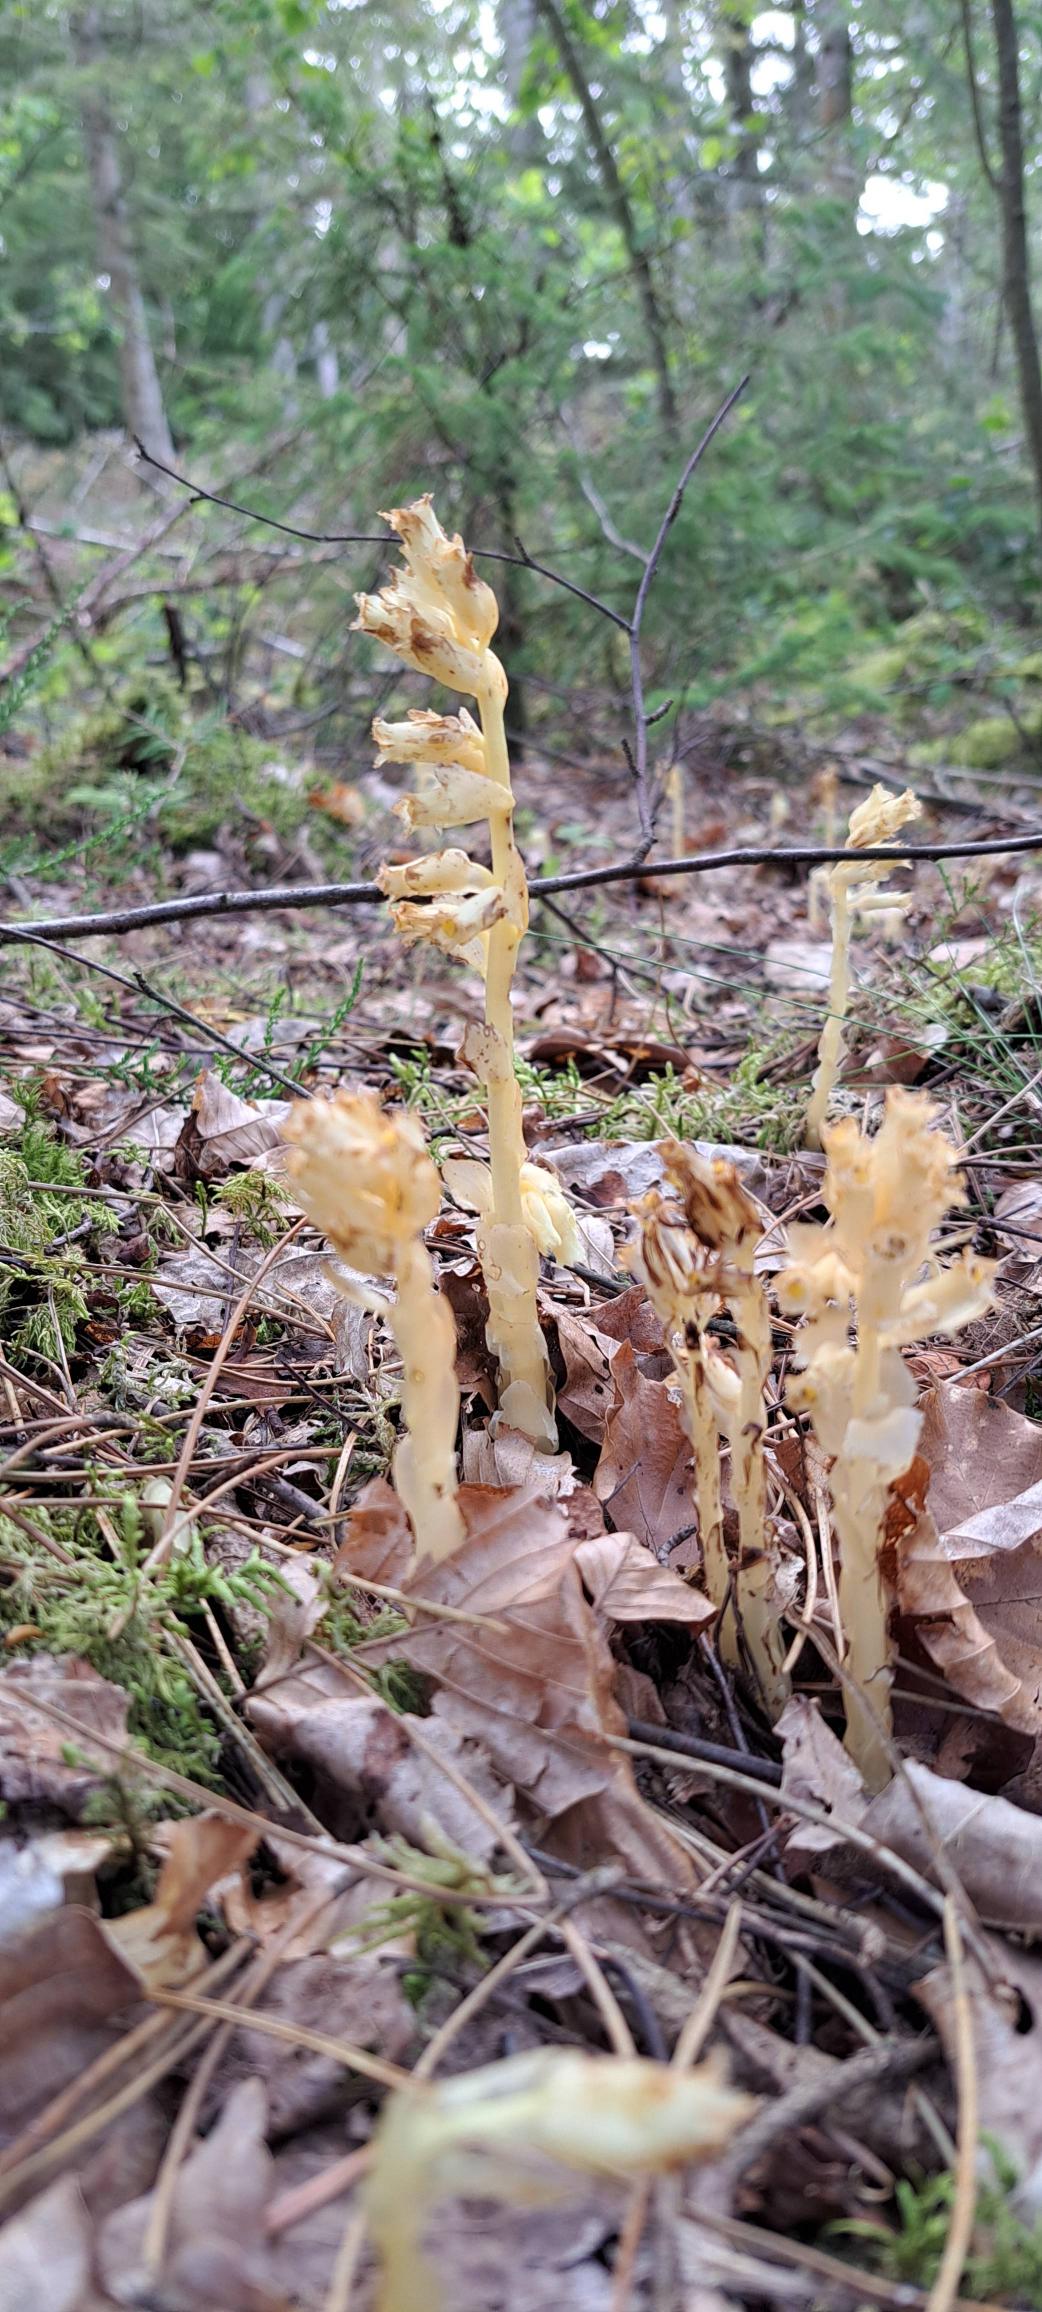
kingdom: Plantae
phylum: Tracheophyta
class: Magnoliopsida
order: Ericales
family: Ericaceae
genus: Hypopitys
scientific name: Hypopitys monotropa
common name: Snylterod
